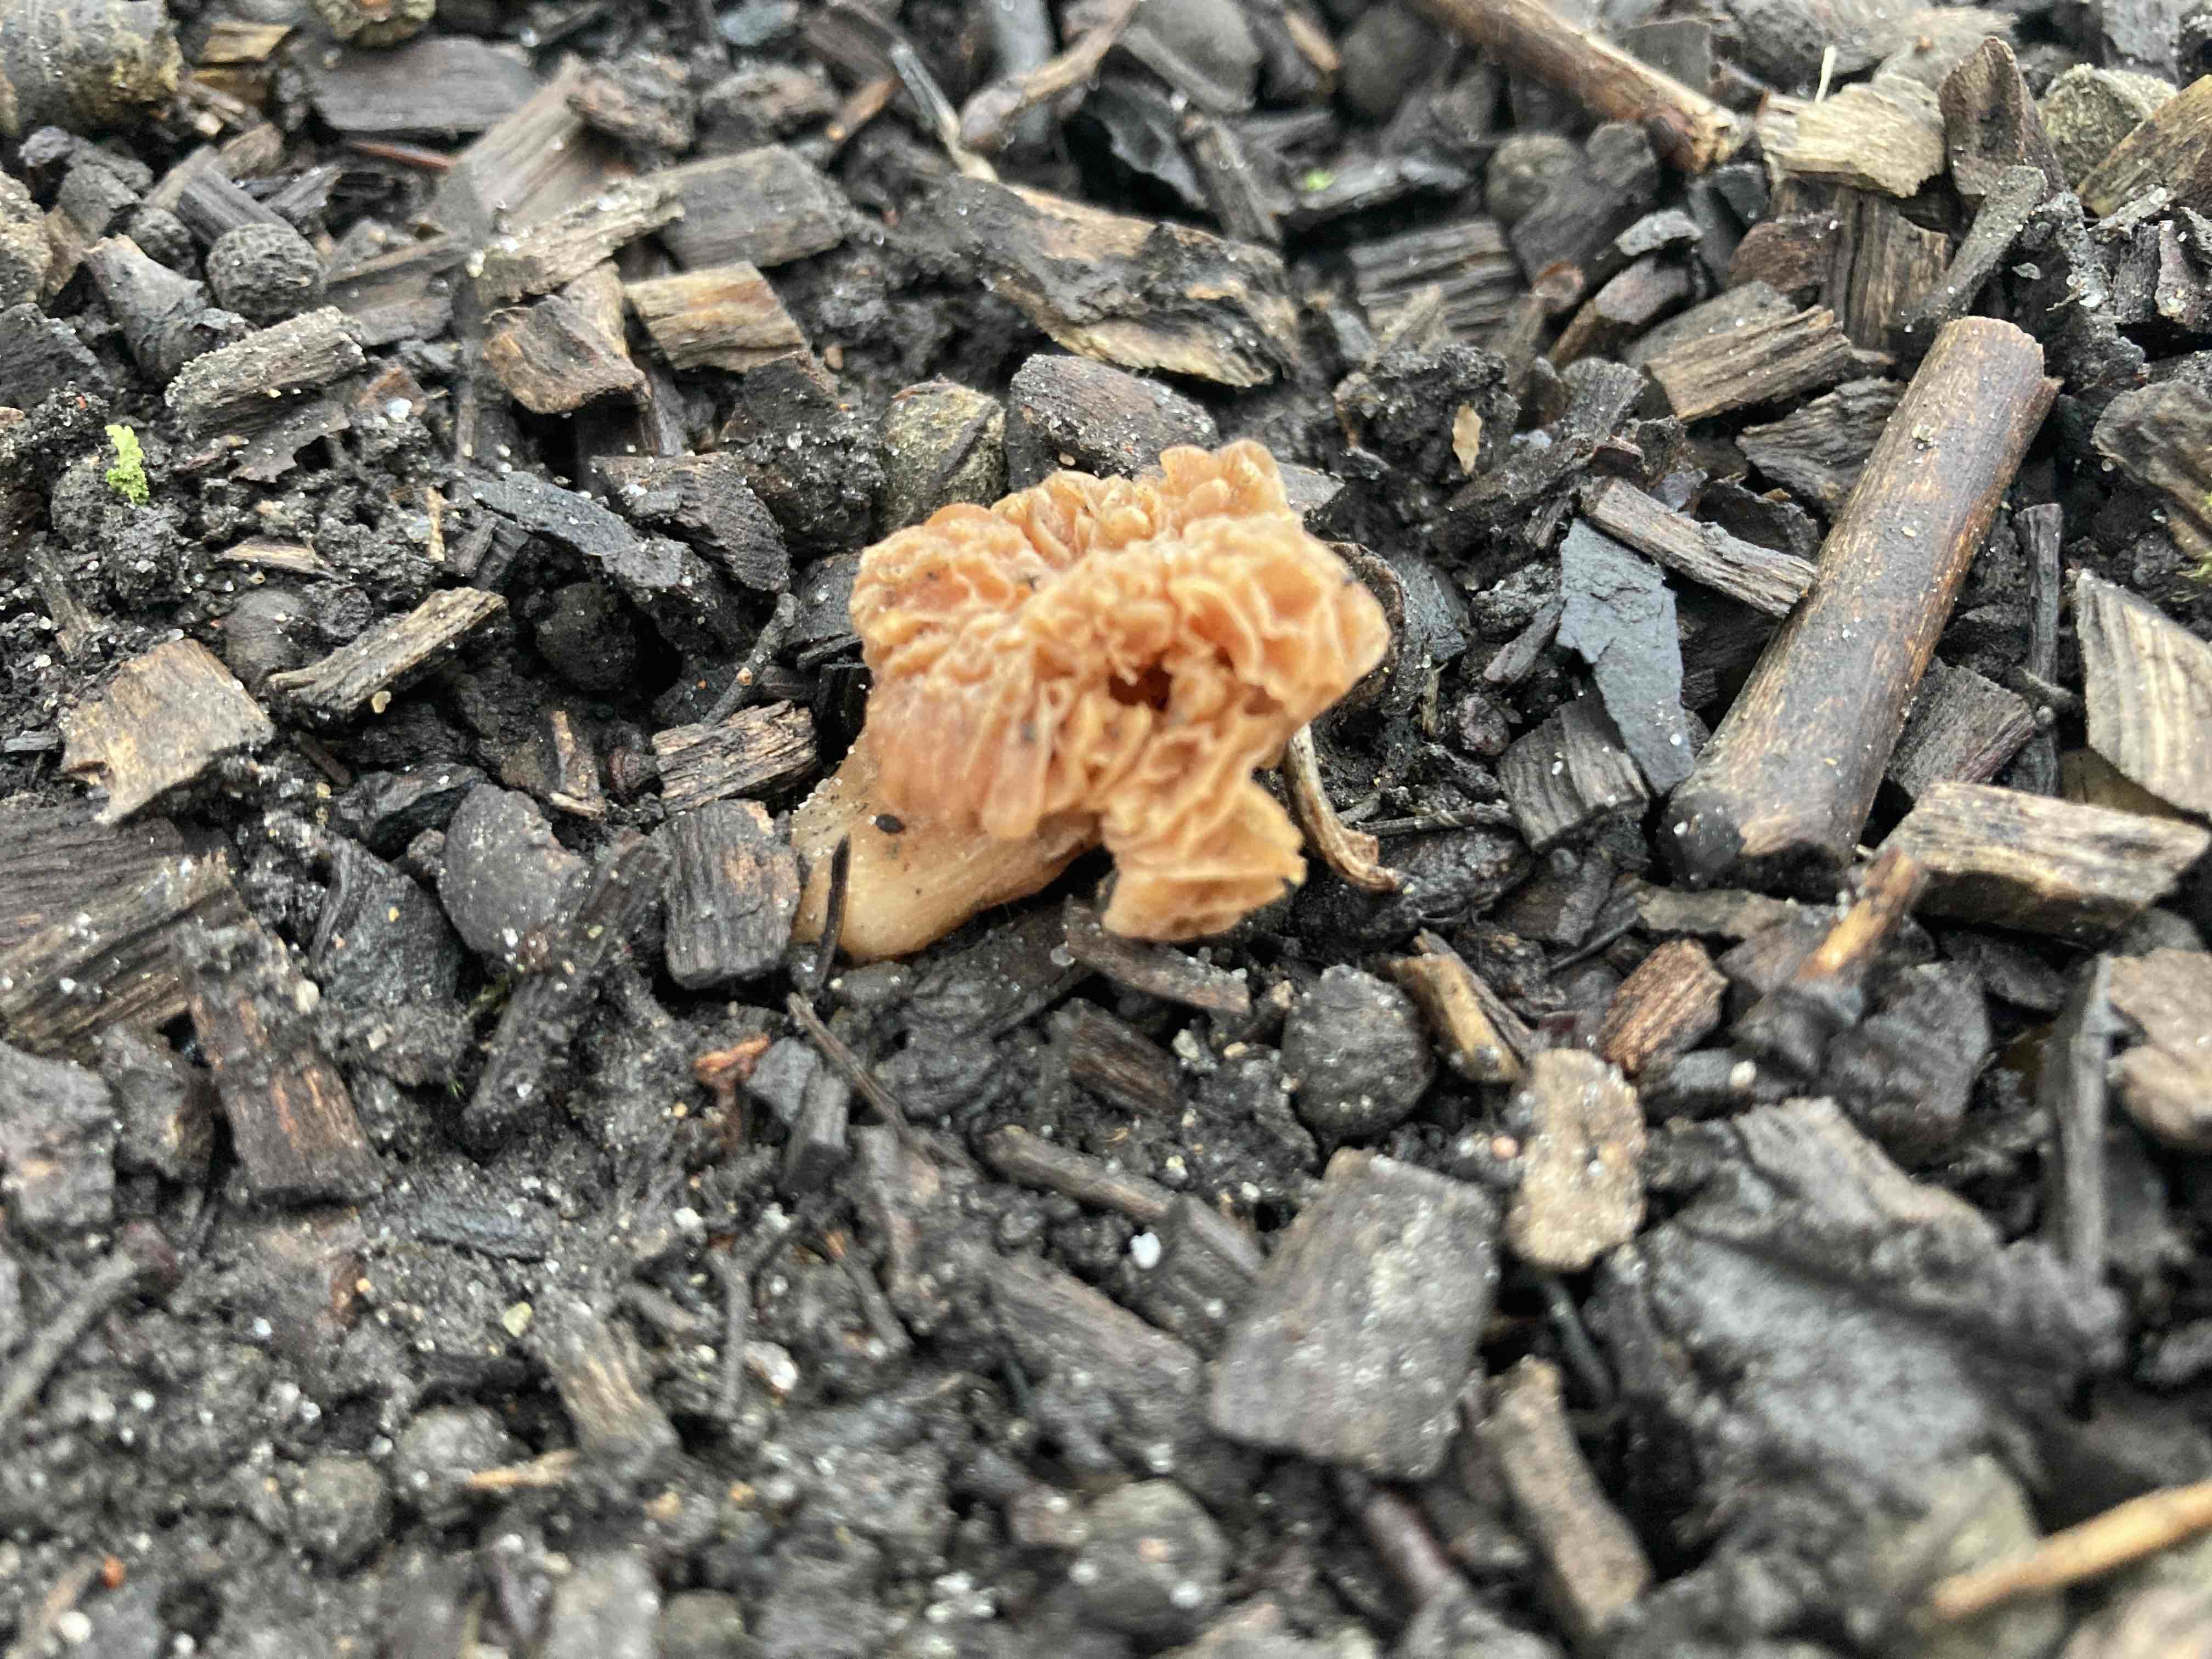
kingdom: Fungi
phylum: Basidiomycota
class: Agaricomycetes
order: Agaricales
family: Tubariaceae
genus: Tubaria
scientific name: Tubaria furfuracea
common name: kliddet fnughat
